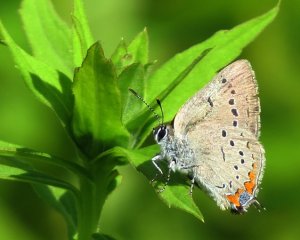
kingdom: Animalia
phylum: Arthropoda
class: Insecta
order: Lepidoptera
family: Lycaenidae
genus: Strymon
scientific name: Strymon acadica
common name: Acadian Hairstreak
